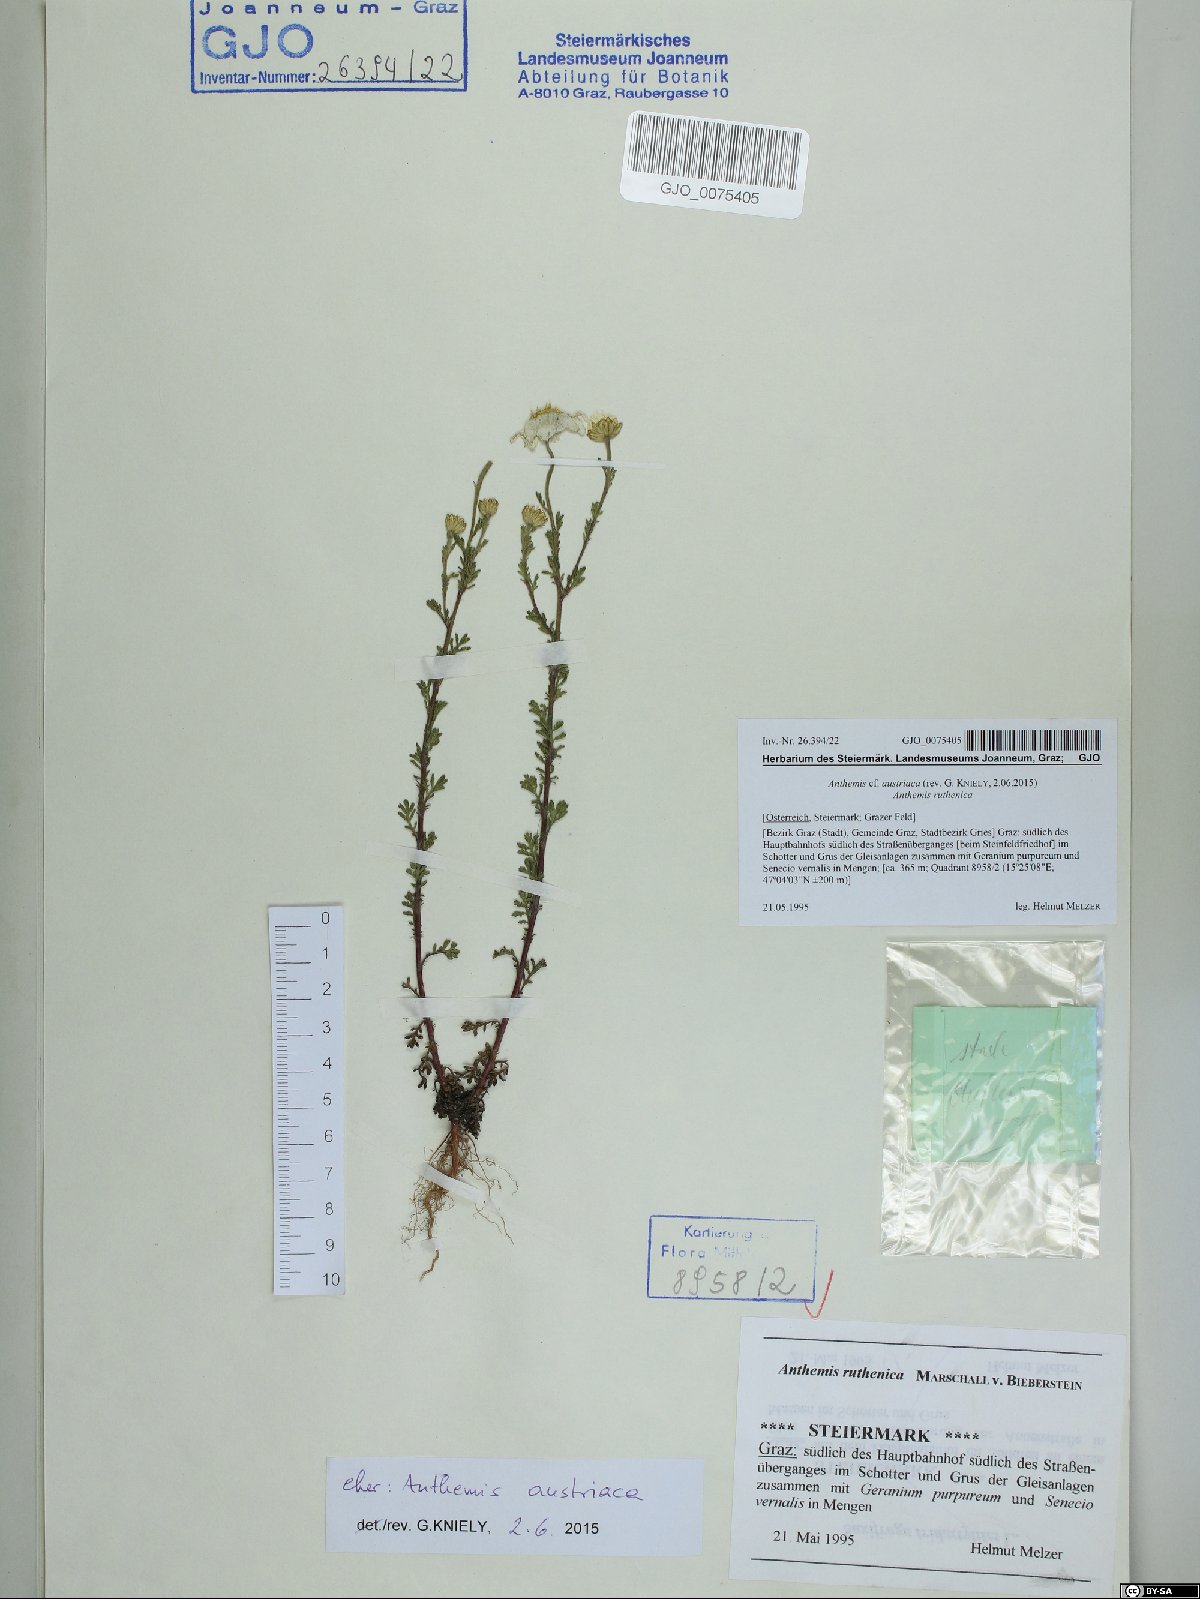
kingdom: Plantae
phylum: Tracheophyta
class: Magnoliopsida
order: Asterales
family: Asteraceae
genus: Cota
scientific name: Cota austriaca
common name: Austrian chamomile
